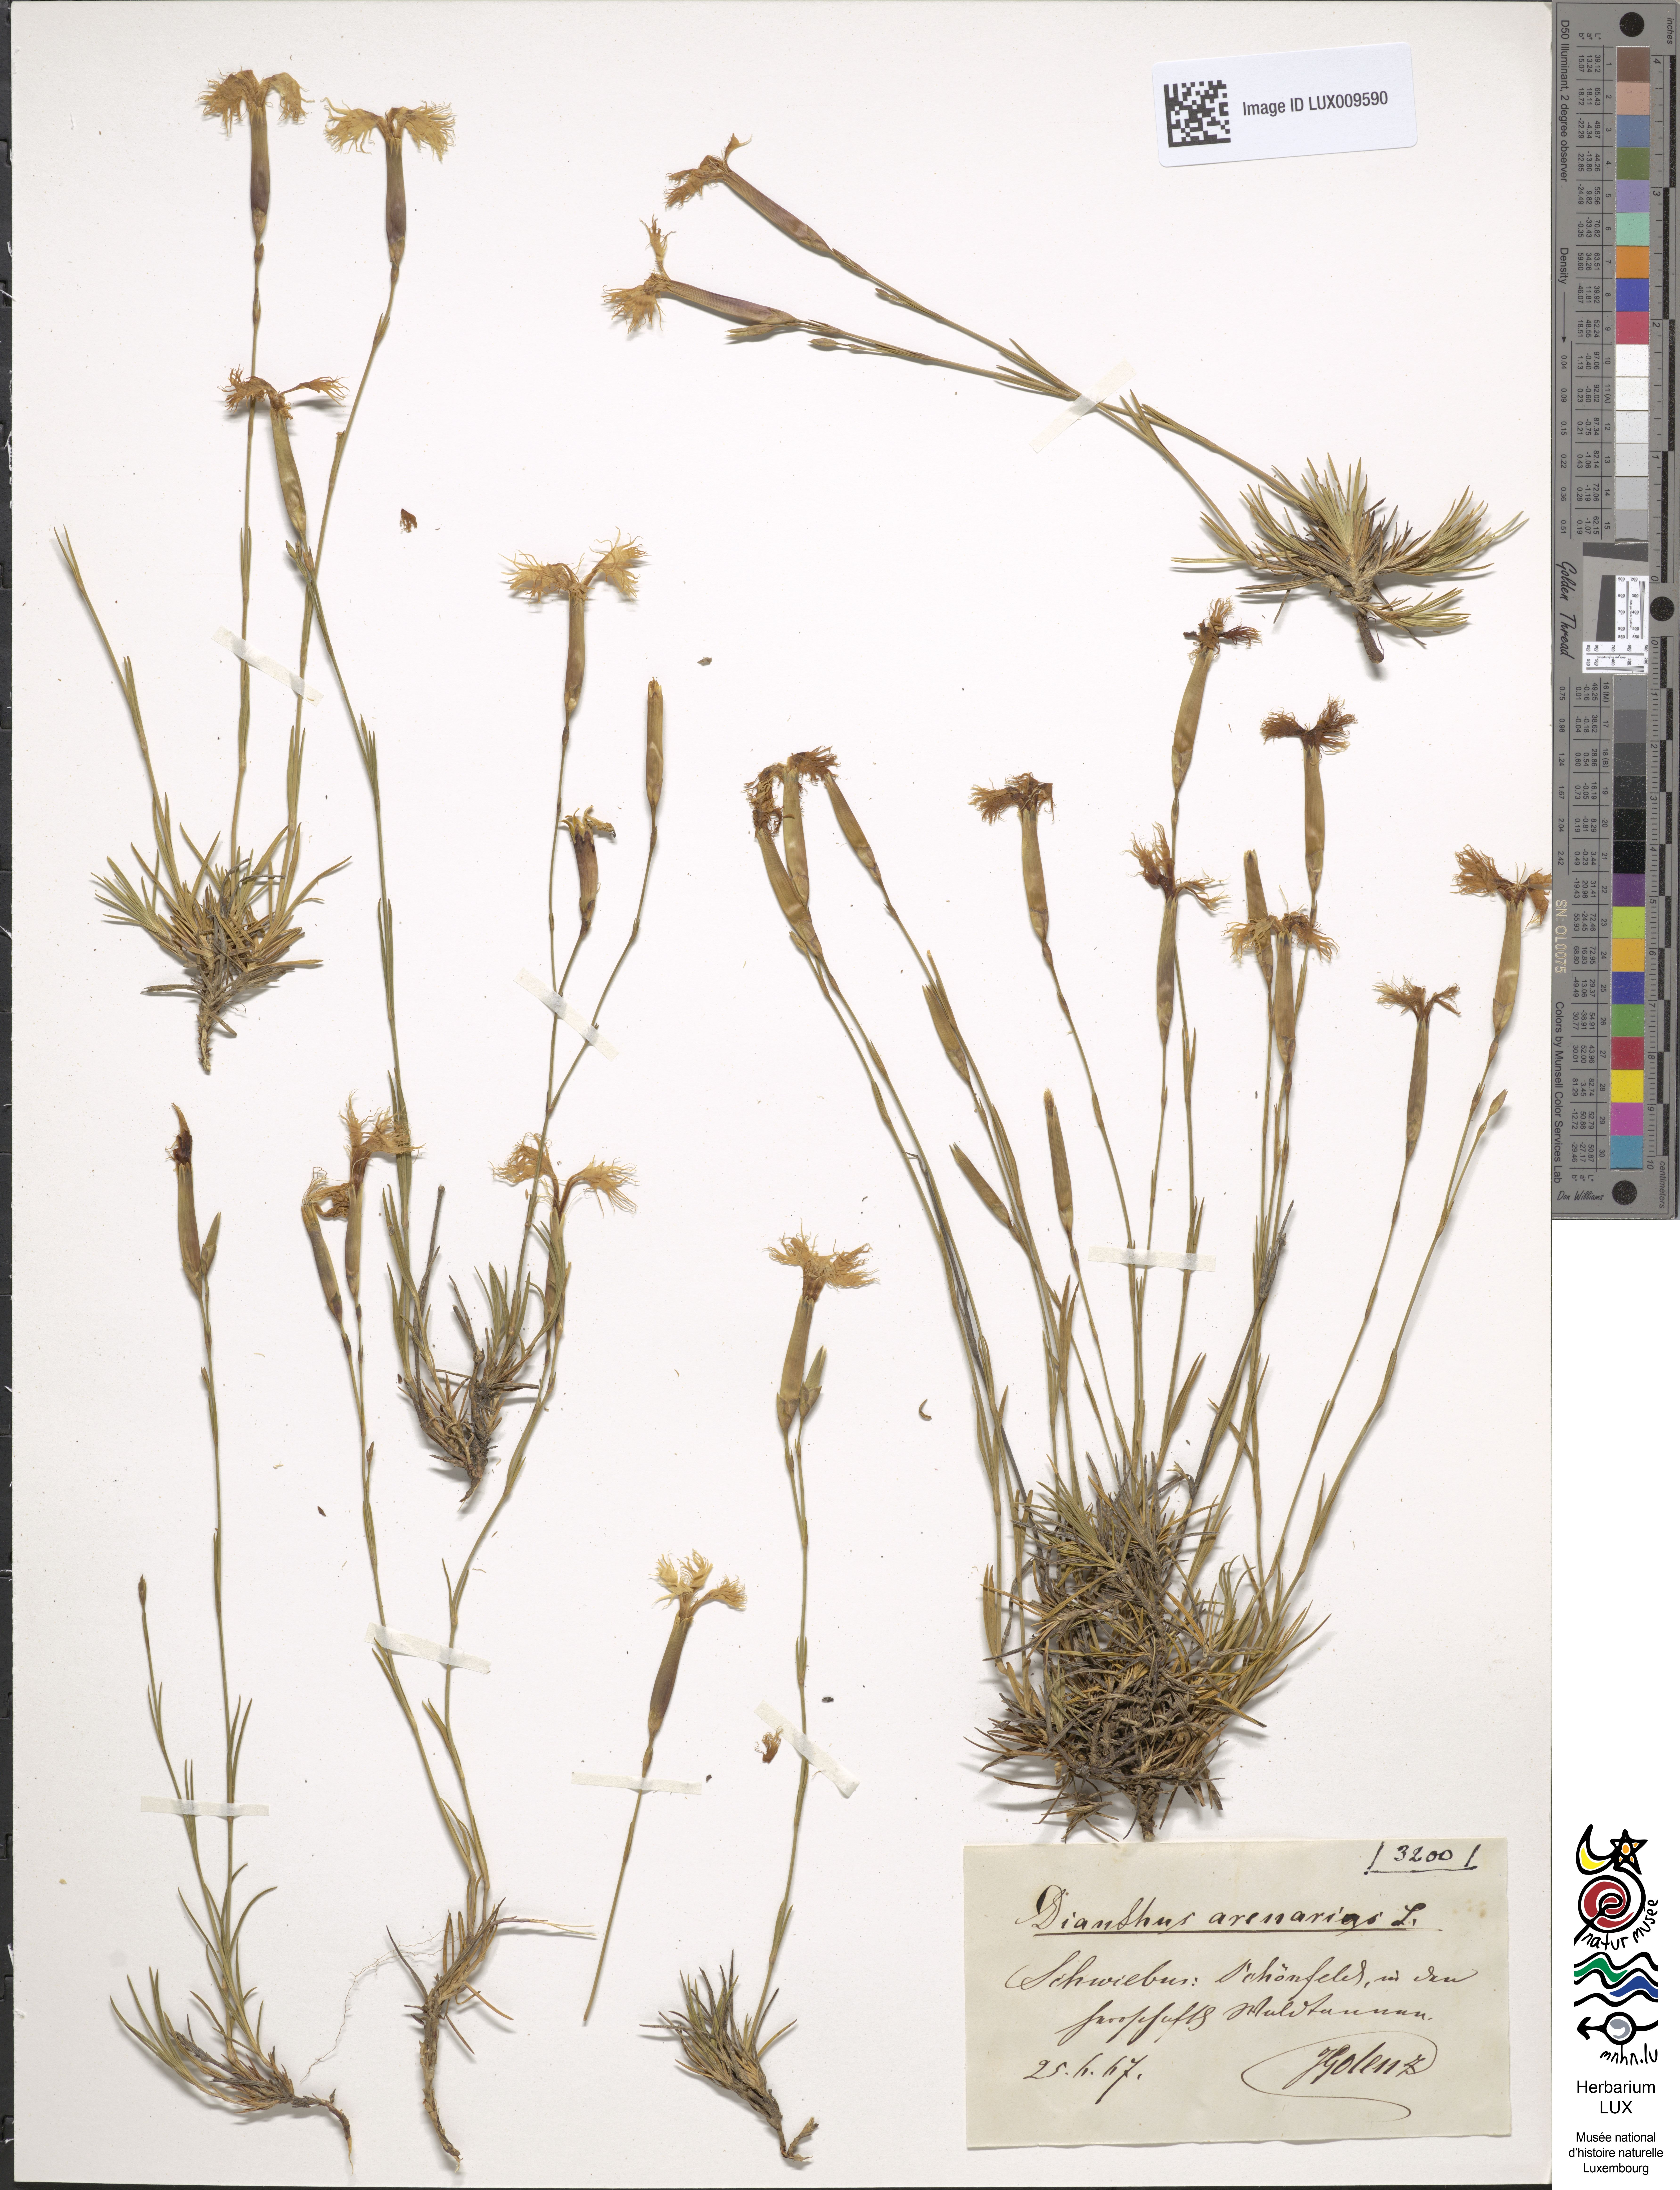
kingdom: Plantae
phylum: Tracheophyta
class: Magnoliopsida
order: Caryophyllales
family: Caryophyllaceae
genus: Dianthus
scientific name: Dianthus arenarius
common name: Stone pink
